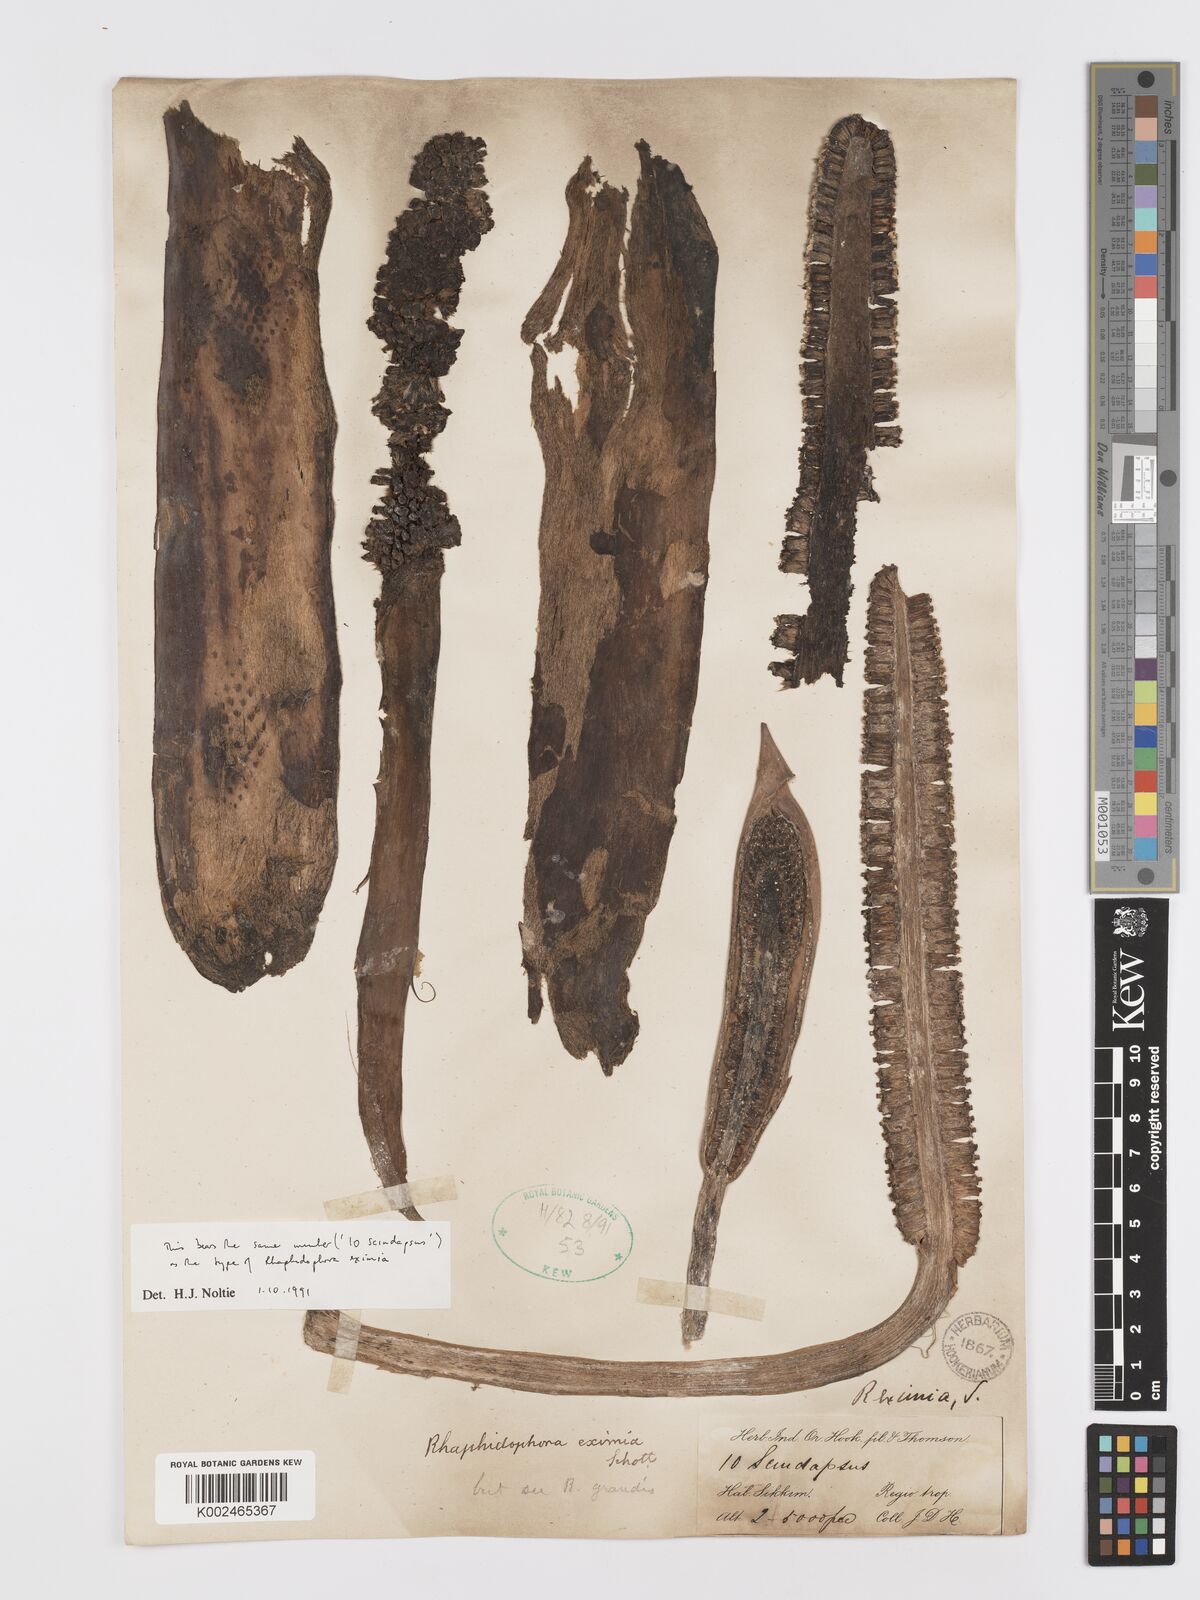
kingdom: Plantae
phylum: Tracheophyta
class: Liliopsida
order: Alismatales
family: Araceae
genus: Rhaphidophora
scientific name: Rhaphidophora decursiva
